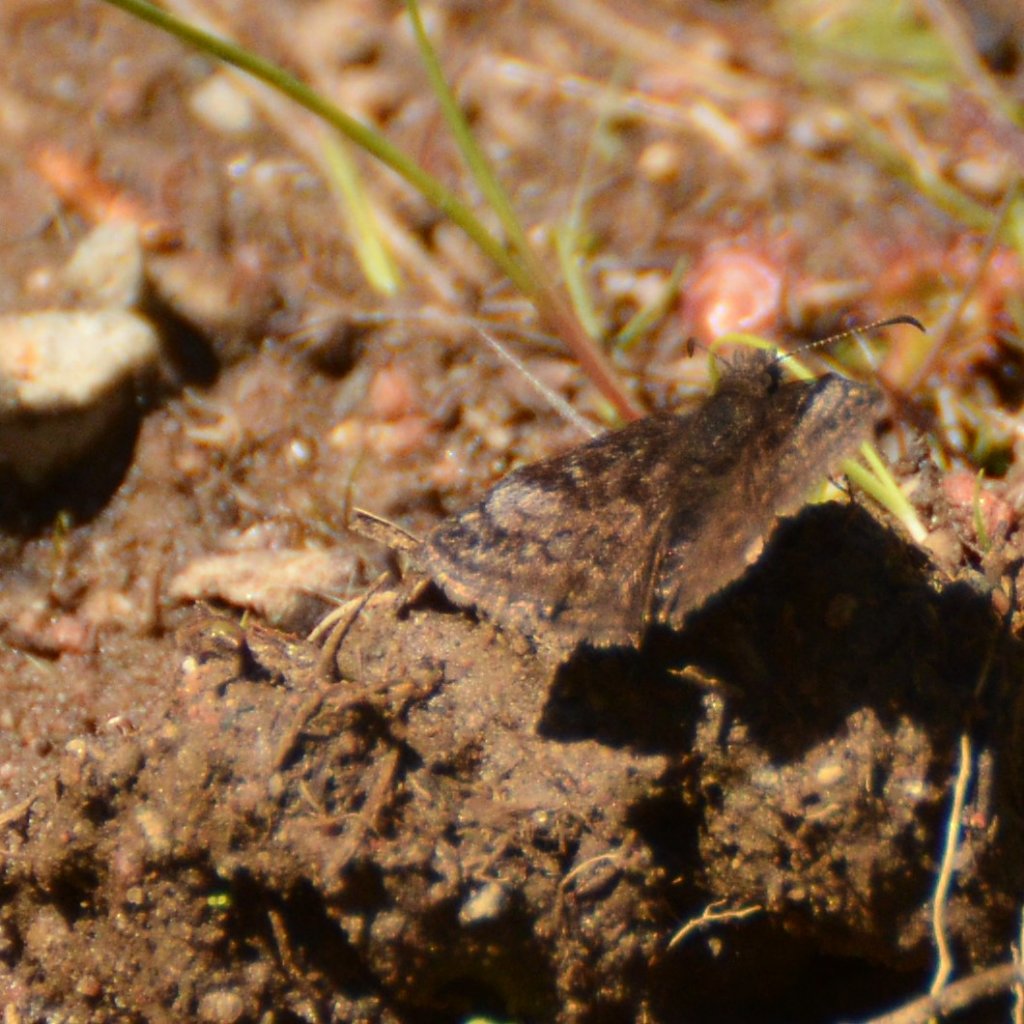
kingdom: Animalia
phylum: Arthropoda
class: Insecta
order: Lepidoptera
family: Hesperiidae
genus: Erynnis
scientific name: Erynnis icelus
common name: Dreamy Duskywing
